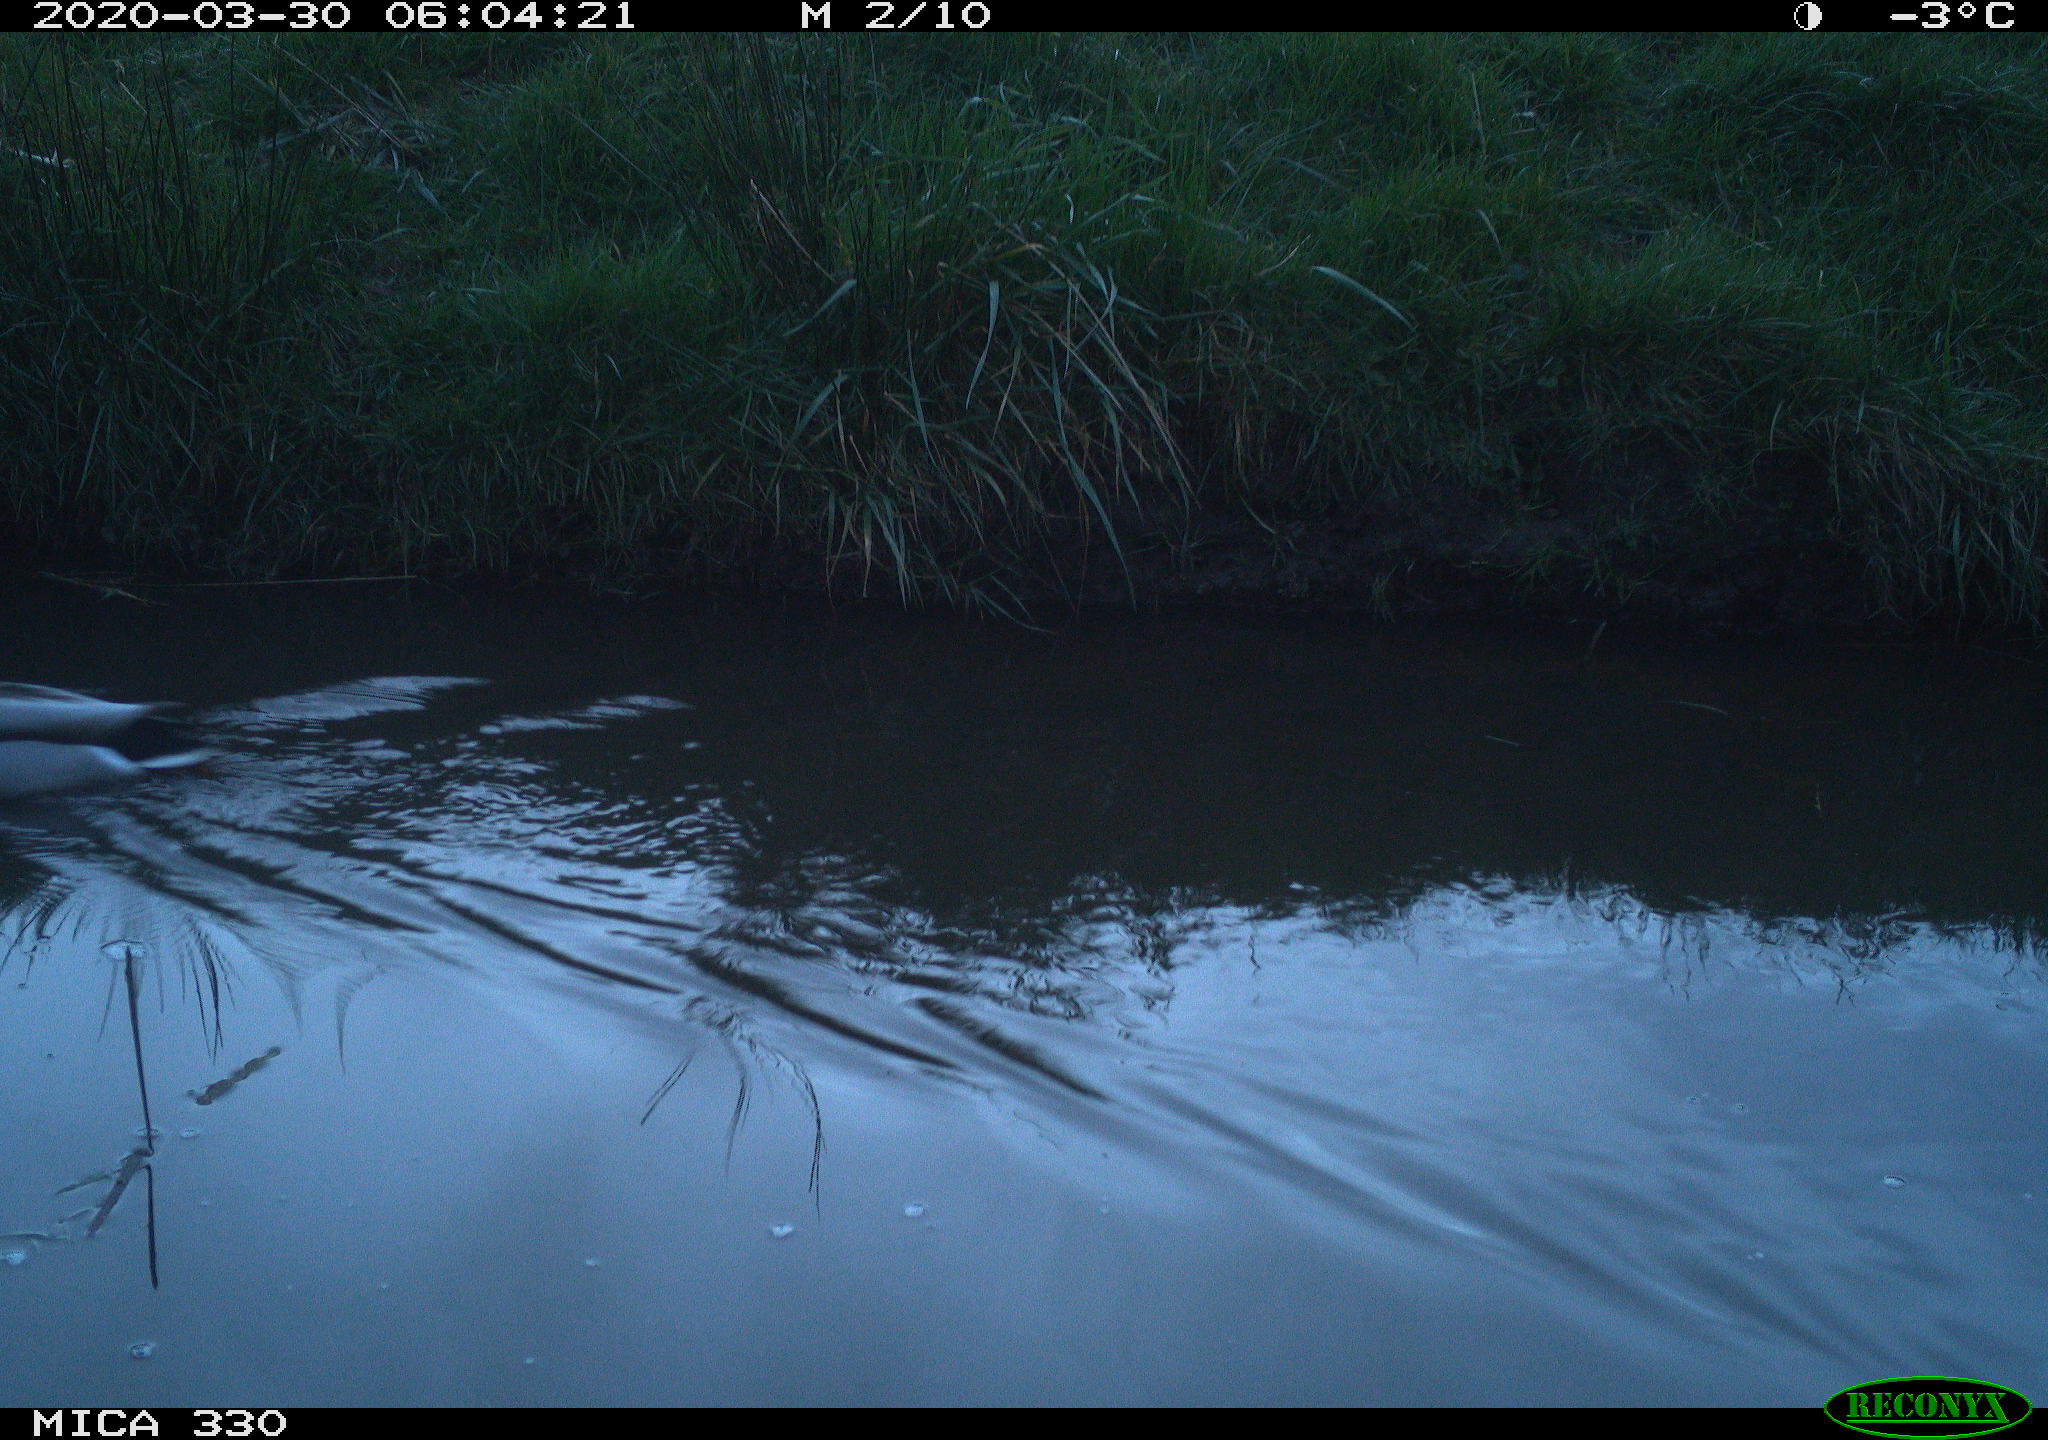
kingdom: Animalia
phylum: Chordata
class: Aves
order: Anseriformes
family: Anatidae
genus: Anas
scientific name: Anas platyrhynchos
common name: Mallard
